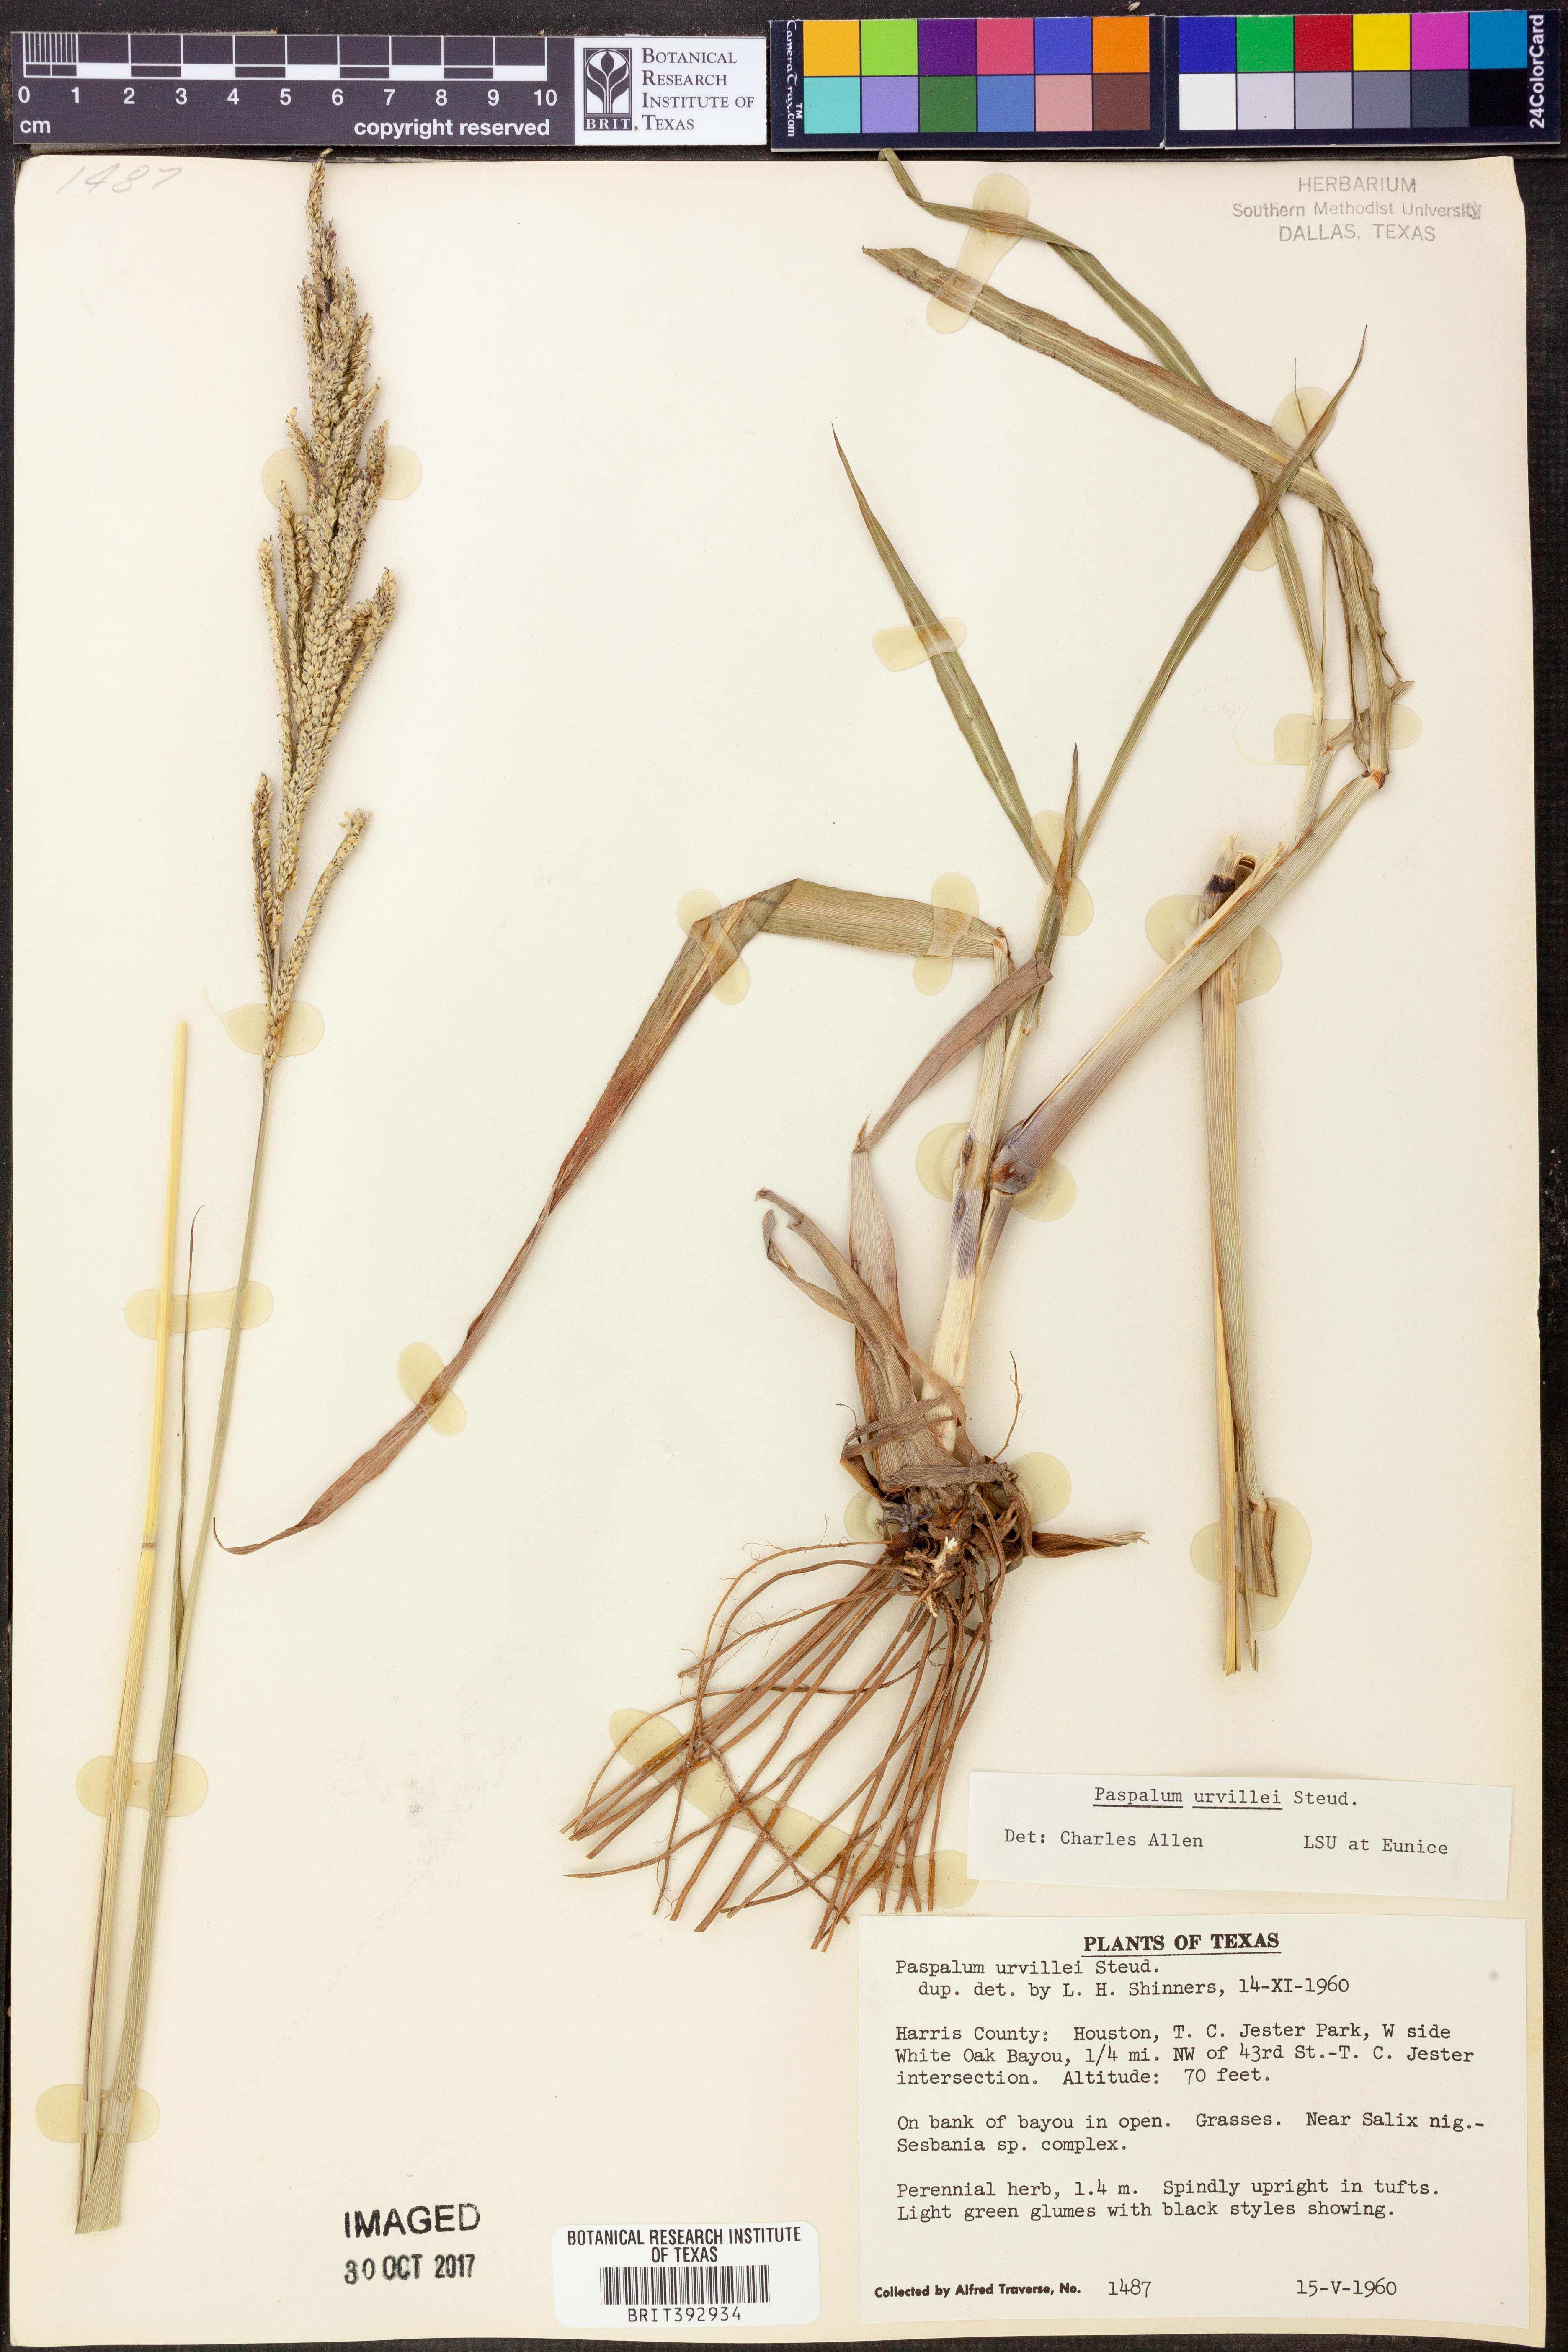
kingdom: Plantae
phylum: Tracheophyta
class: Liliopsida
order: Poales
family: Poaceae
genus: Paspalum
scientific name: Paspalum urvillei
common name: Vasey's grass
